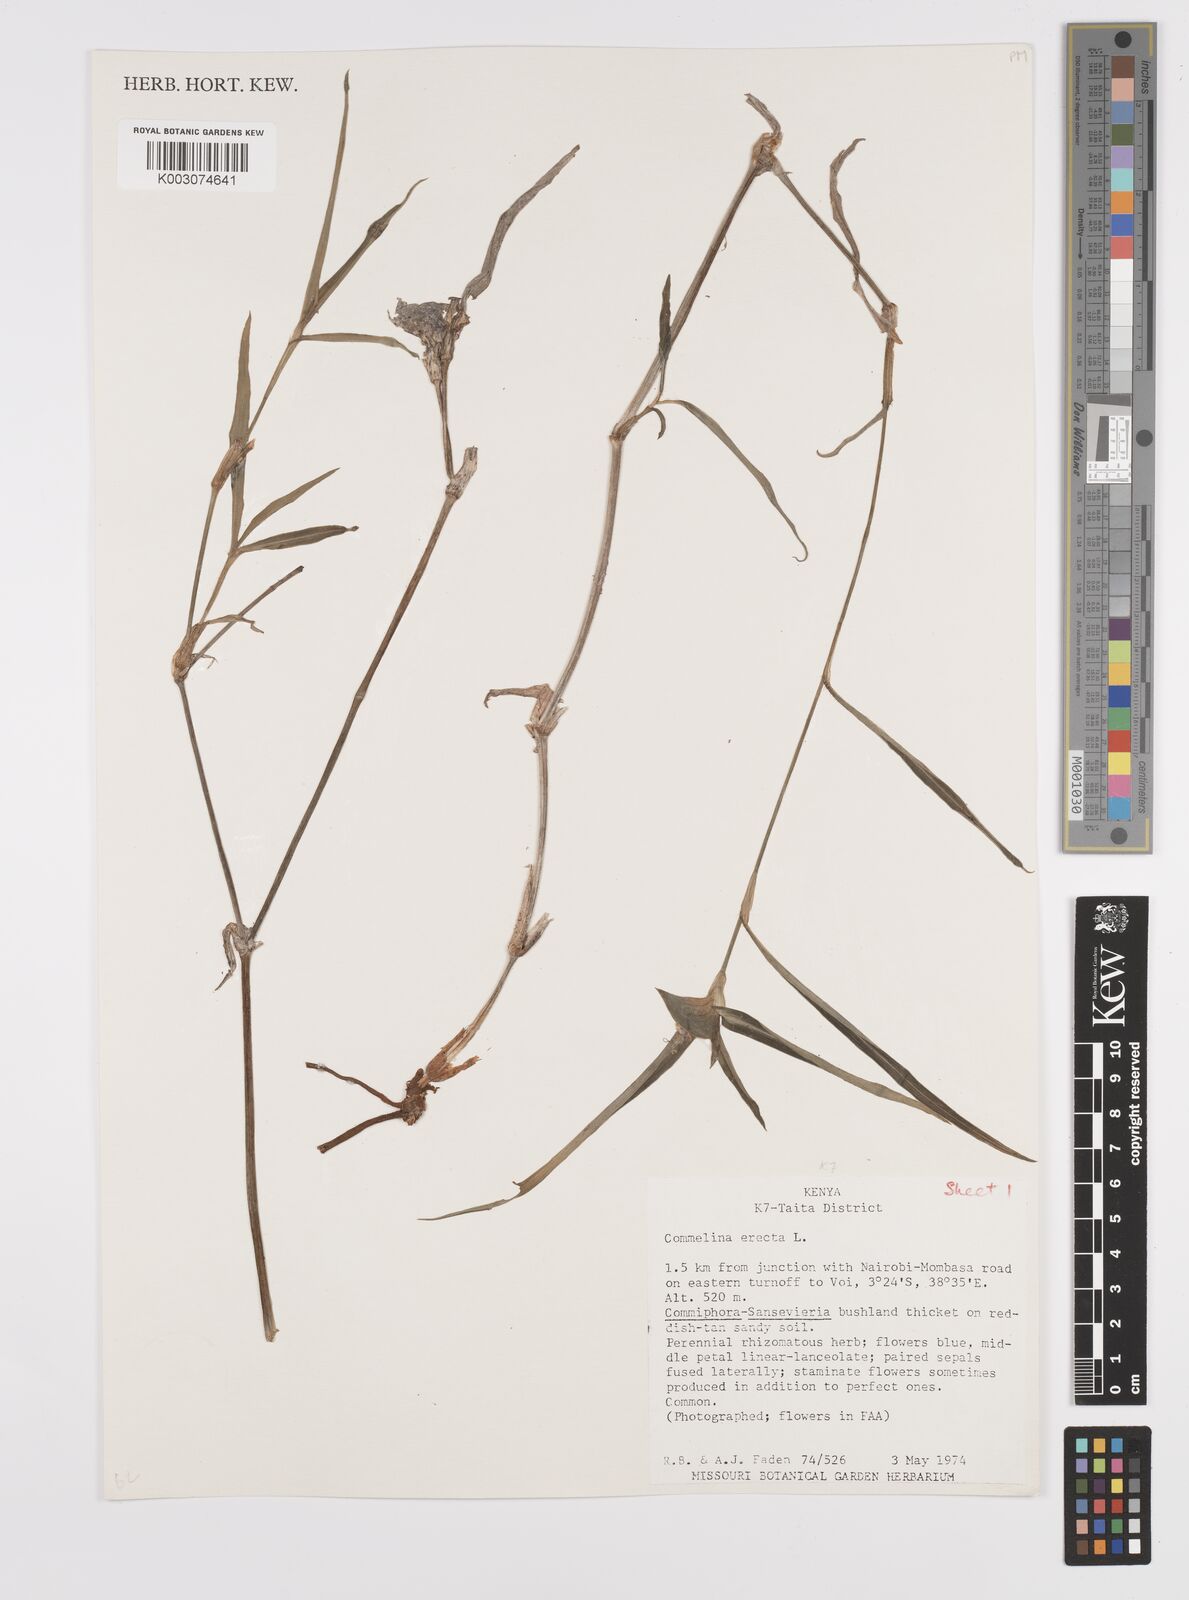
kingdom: Plantae
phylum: Tracheophyta
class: Liliopsida
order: Commelinales
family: Commelinaceae
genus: Commelina
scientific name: Commelina erecta
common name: Blousel blommetjie
